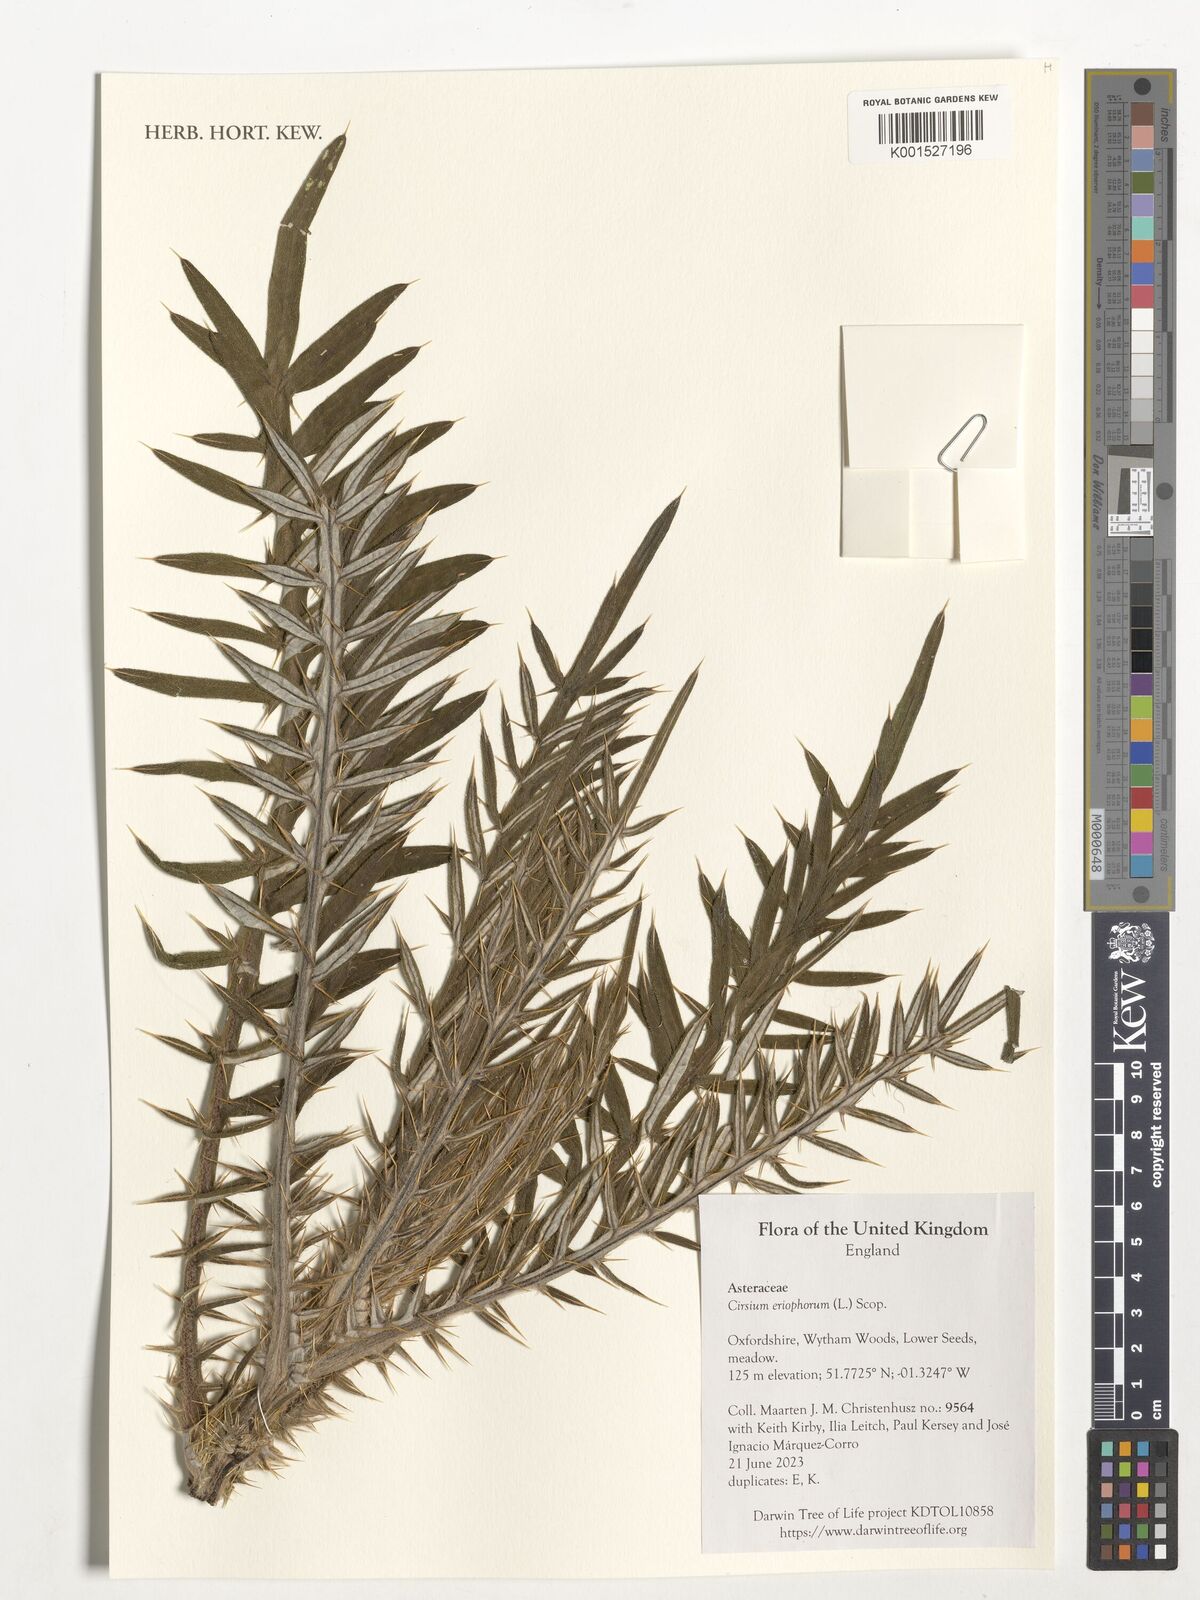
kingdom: Plantae
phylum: Tracheophyta
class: Magnoliopsida
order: Asterales
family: Asteraceae
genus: Lophiolepis
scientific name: Lophiolepis eriophora
